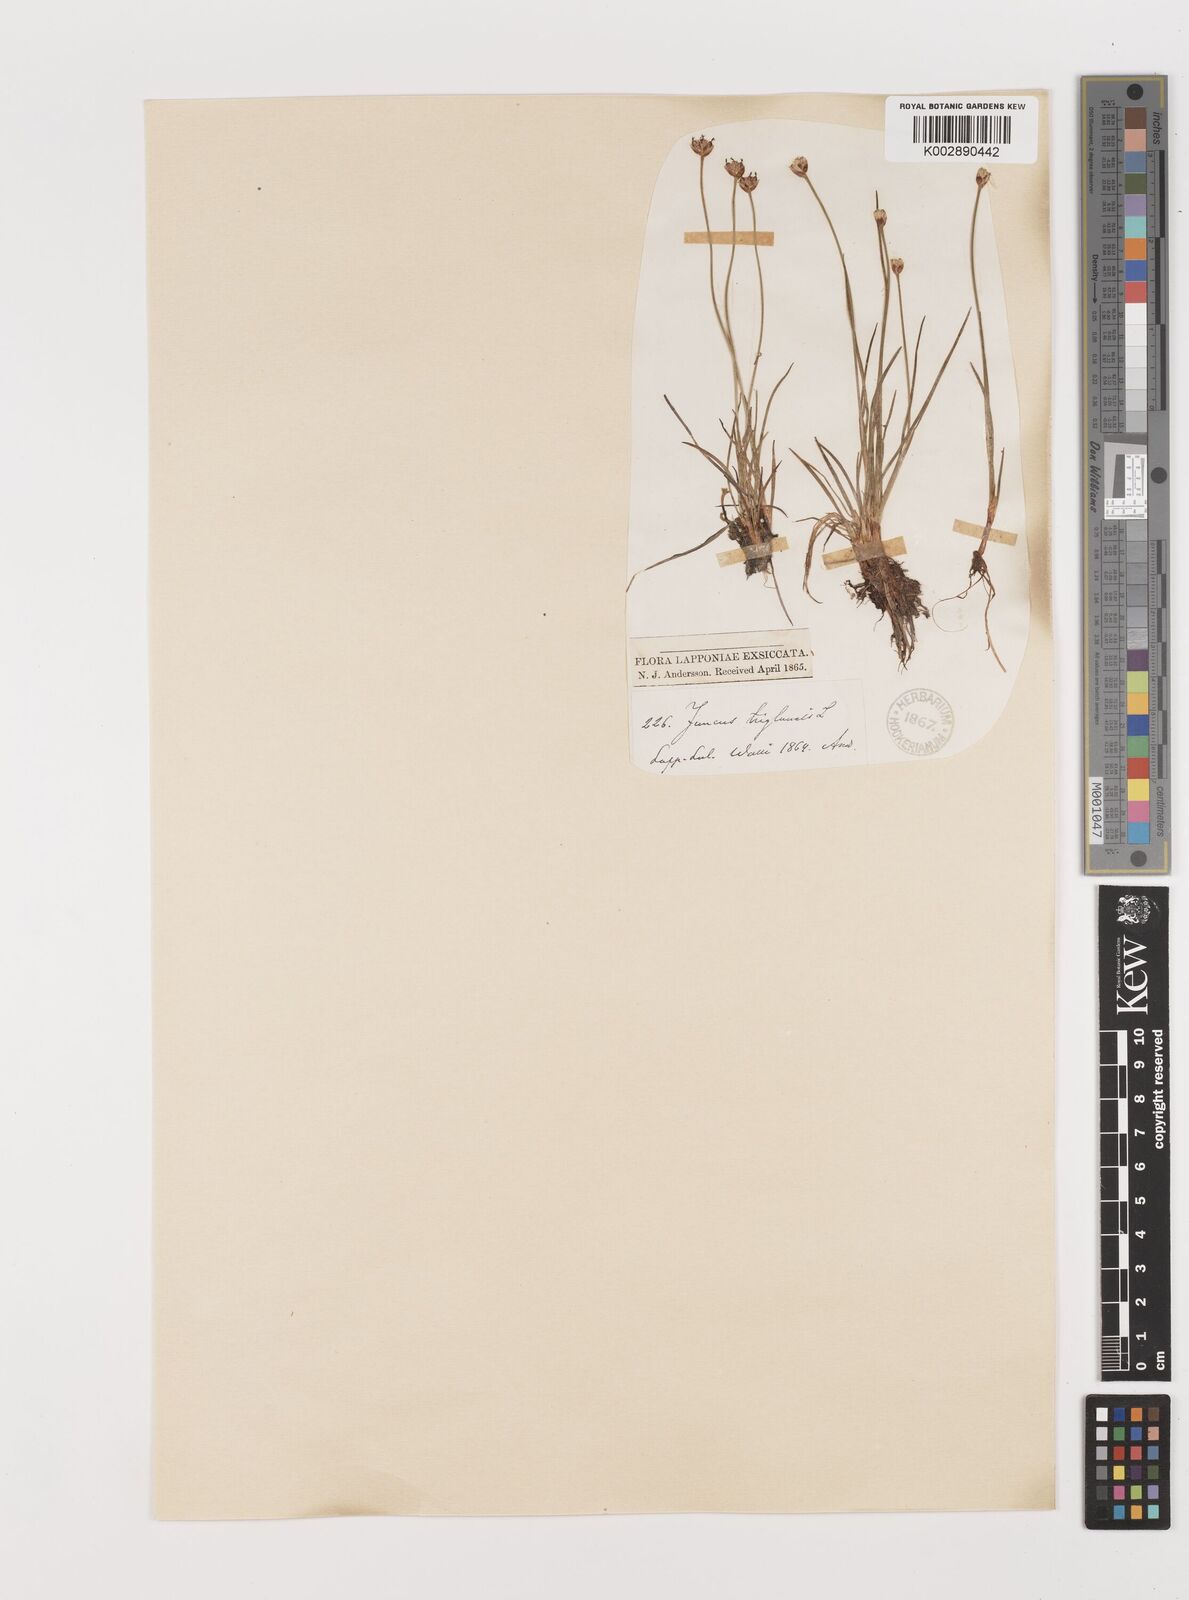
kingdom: Plantae
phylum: Tracheophyta
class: Liliopsida
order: Poales
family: Juncaceae
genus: Juncus
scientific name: Juncus triglumis
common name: Three-flowered rush
